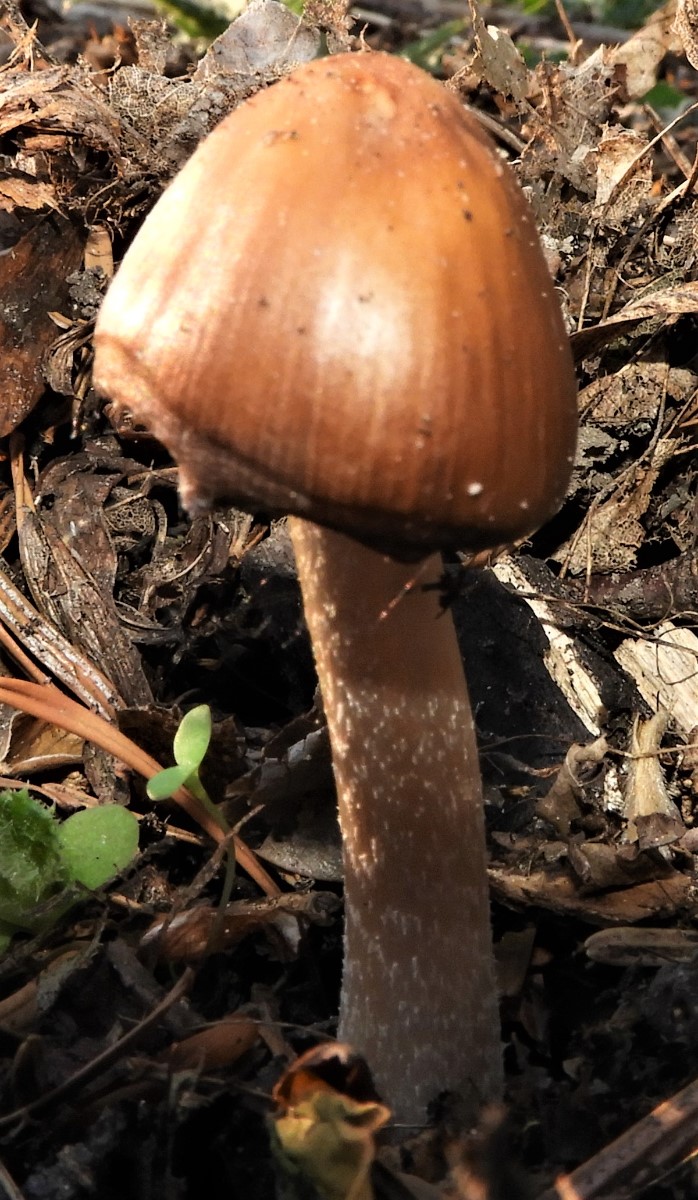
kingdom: Fungi
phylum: Basidiomycota
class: Agaricomycetes
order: Agaricales
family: Psathyrellaceae
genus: Psathyrella
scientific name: Psathyrella
